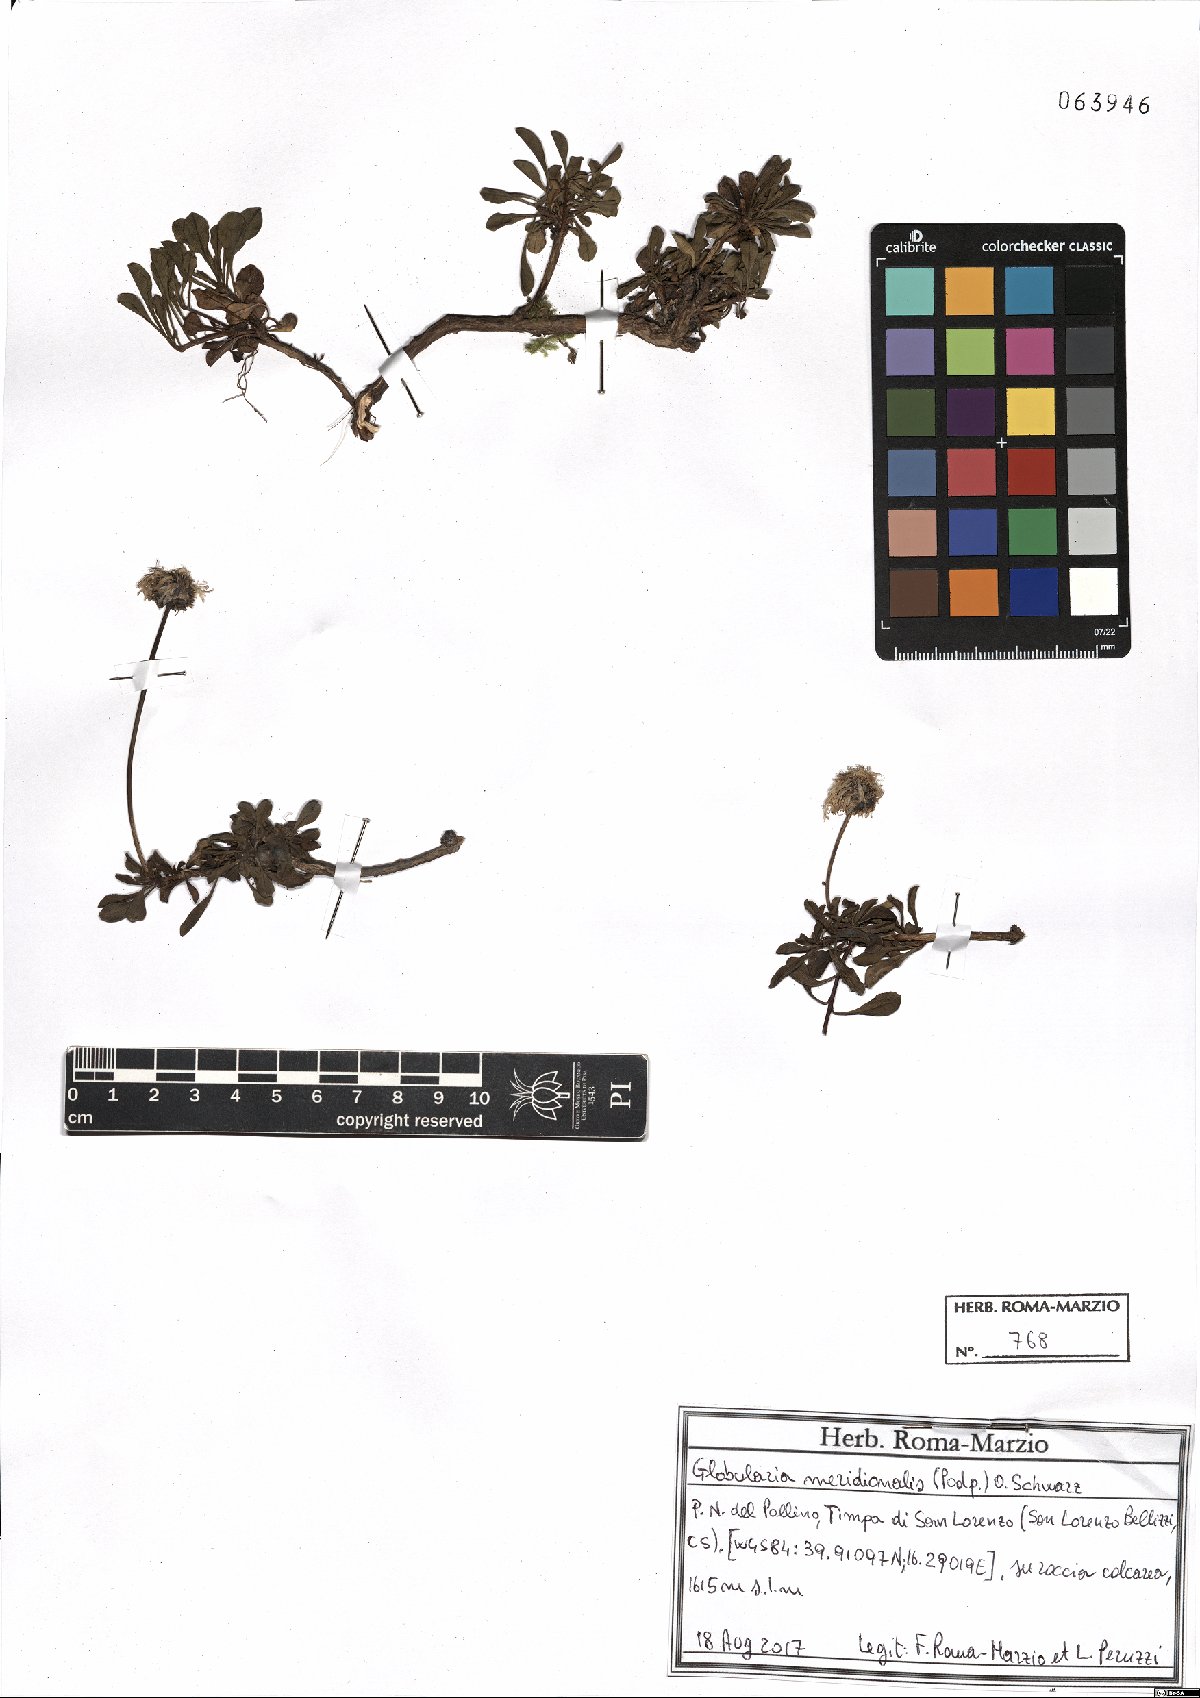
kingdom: Plantae
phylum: Tracheophyta
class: Magnoliopsida
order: Lamiales
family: Plantaginaceae
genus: Globularia
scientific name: Globularia meridionalis
